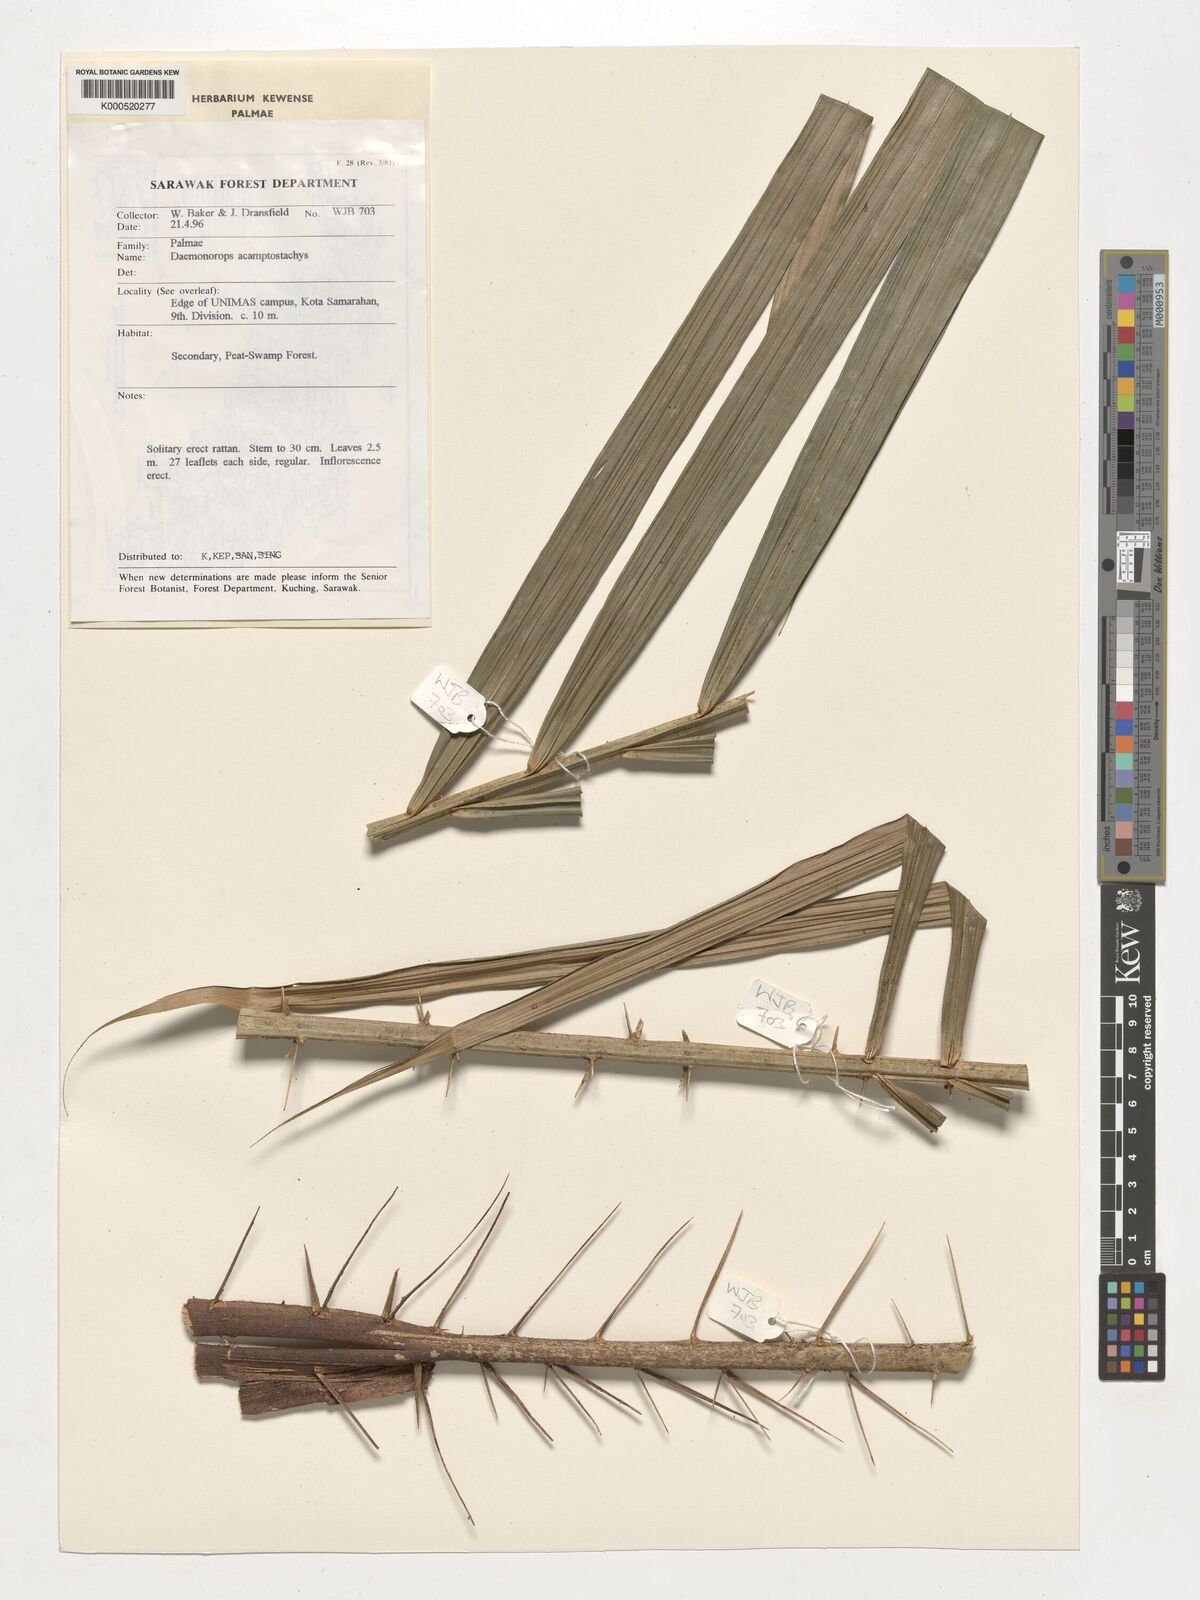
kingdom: Plantae
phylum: Tracheophyta
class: Liliopsida
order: Arecales
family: Arecaceae
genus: Calamus
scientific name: Calamus acamptostachys
